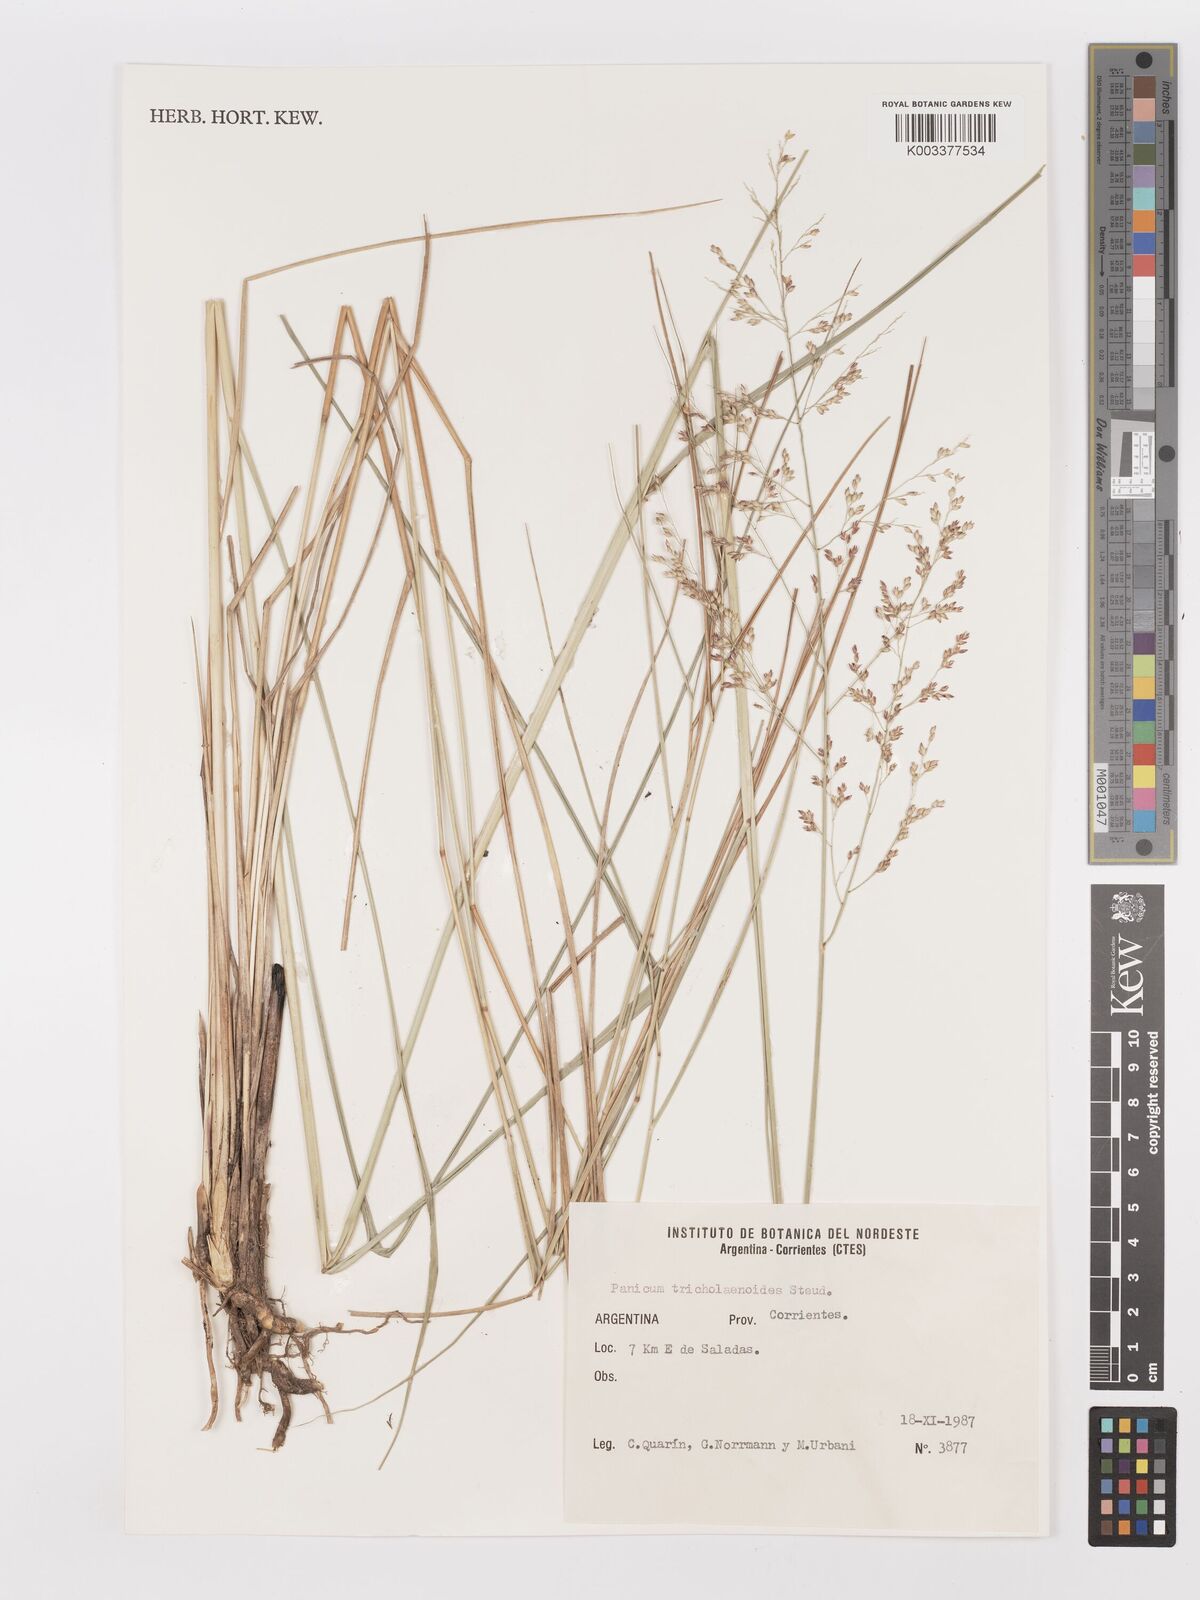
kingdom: Plantae
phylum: Tracheophyta
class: Liliopsida
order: Poales
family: Poaceae
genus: Panicum
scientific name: Panicum glabripes
